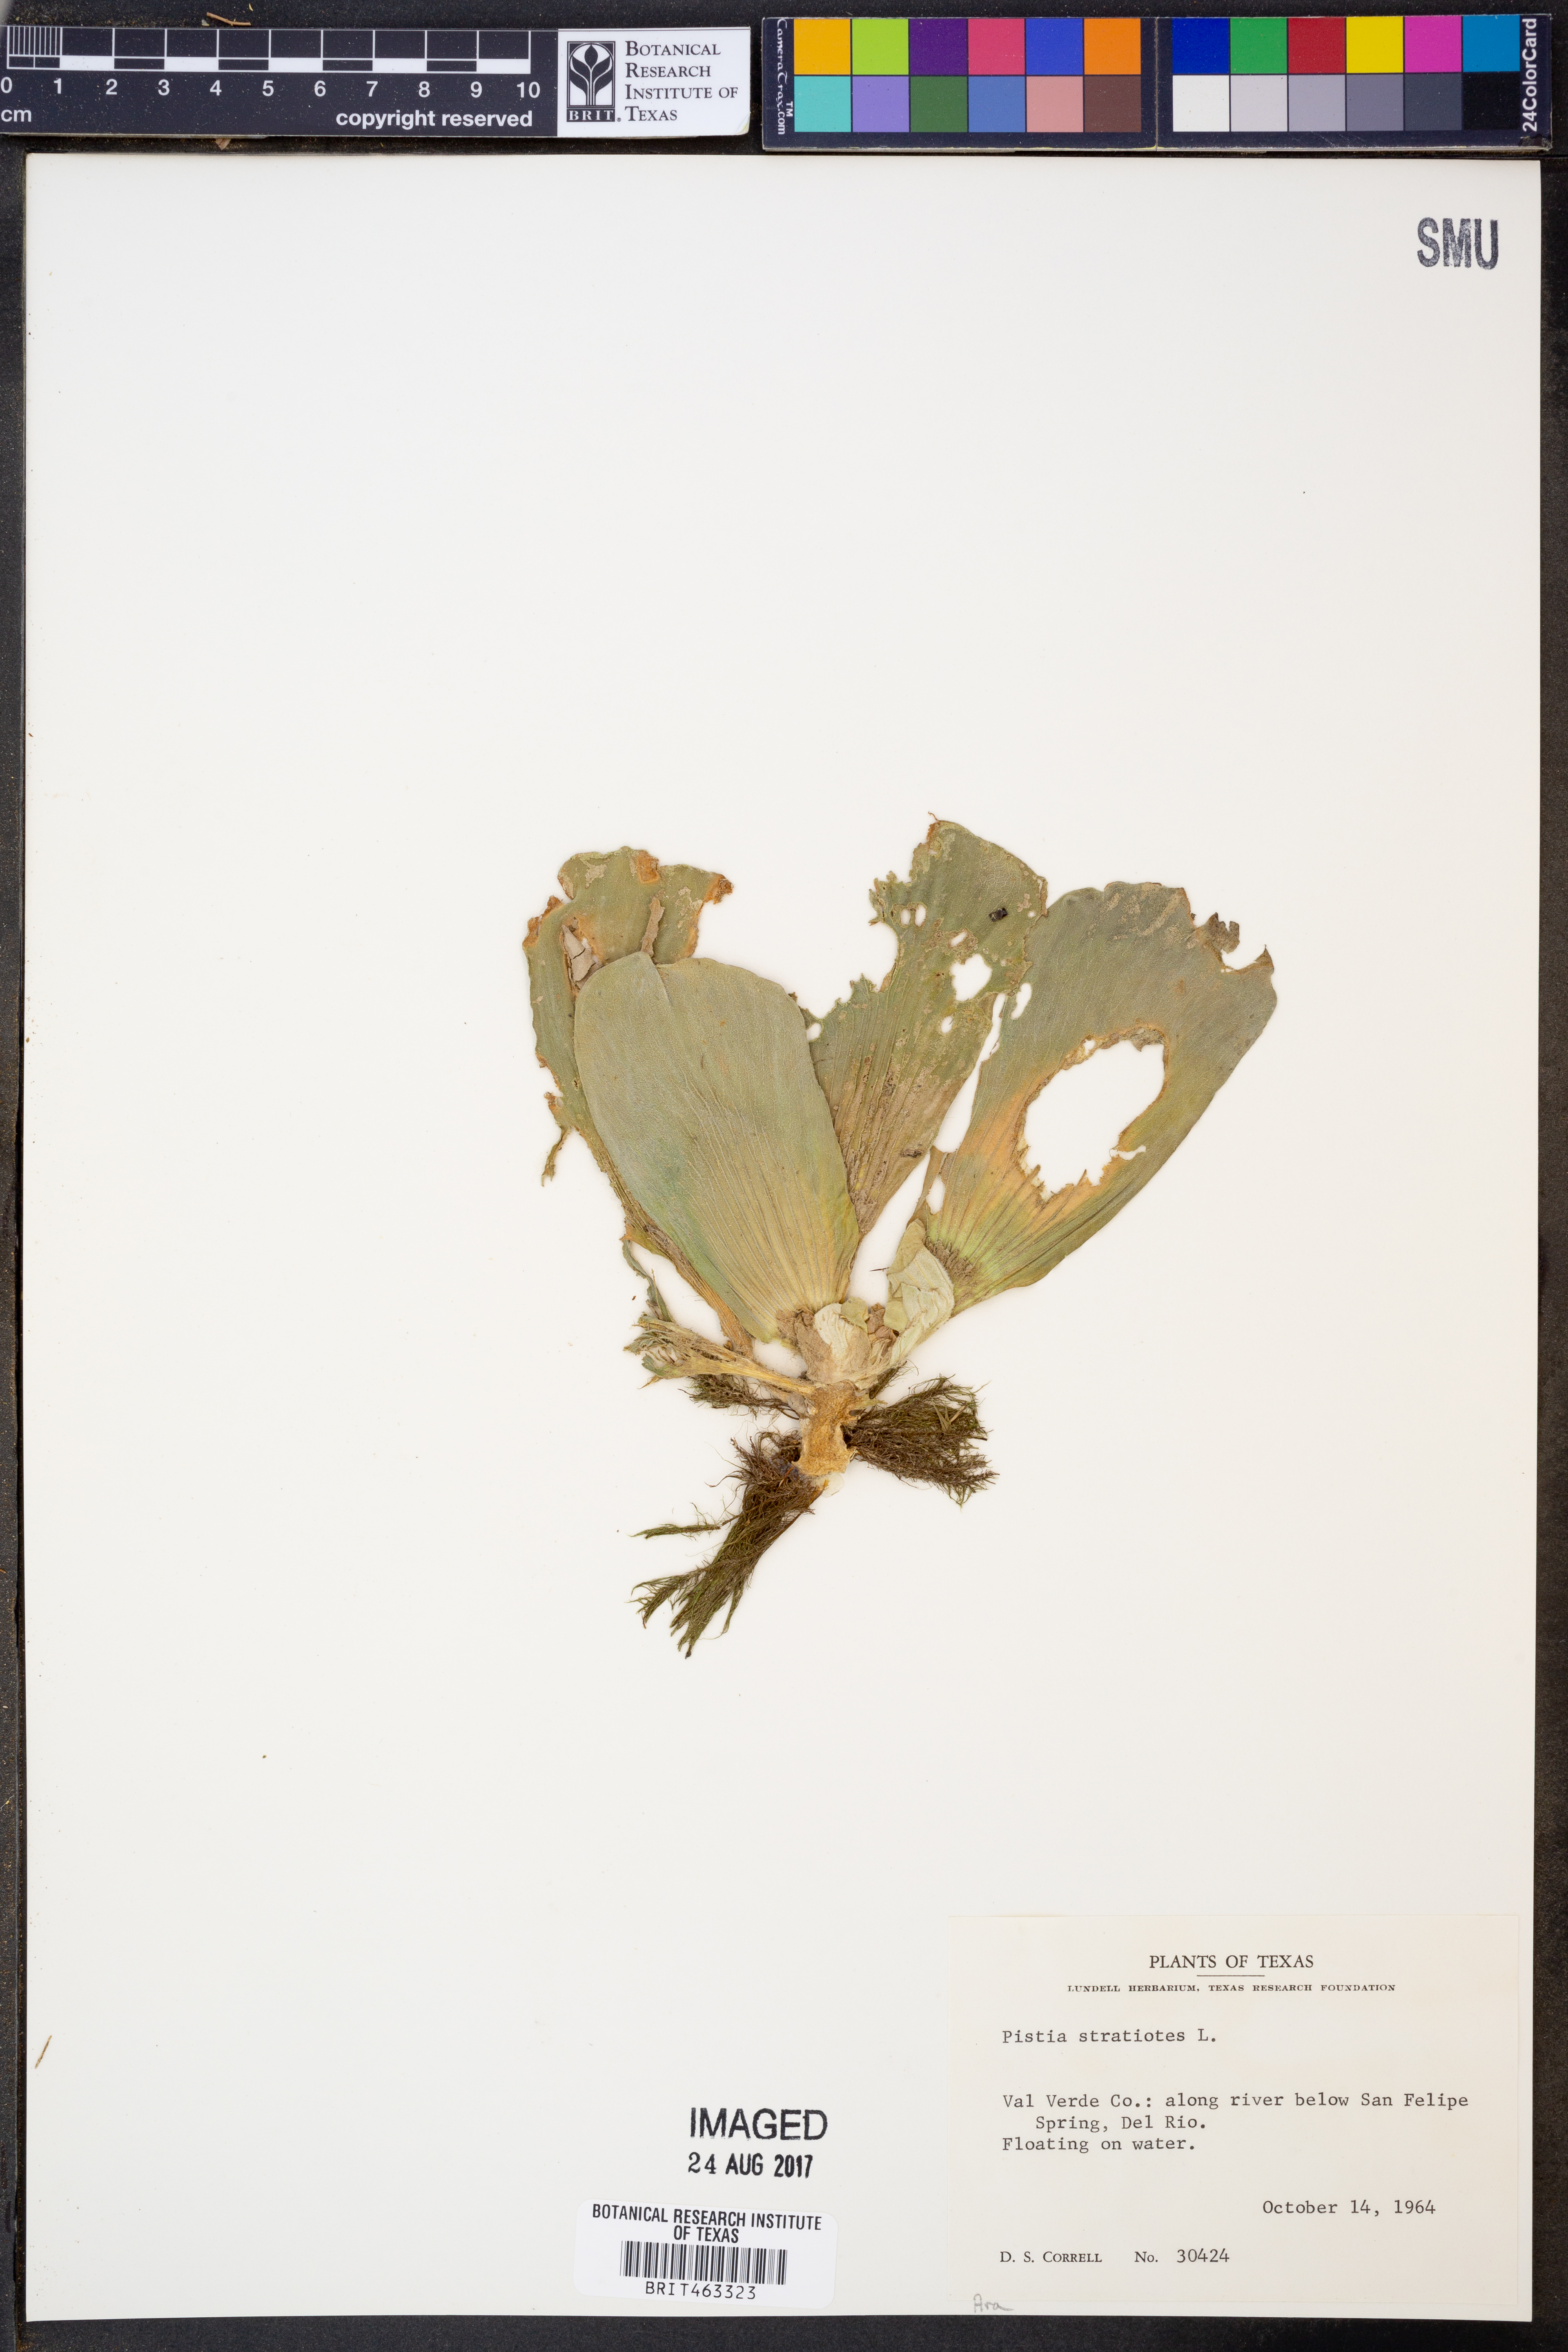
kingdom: Plantae
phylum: Tracheophyta
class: Liliopsida
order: Alismatales
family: Araceae
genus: Pistia
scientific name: Pistia stratiotes
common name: Water lettuce
